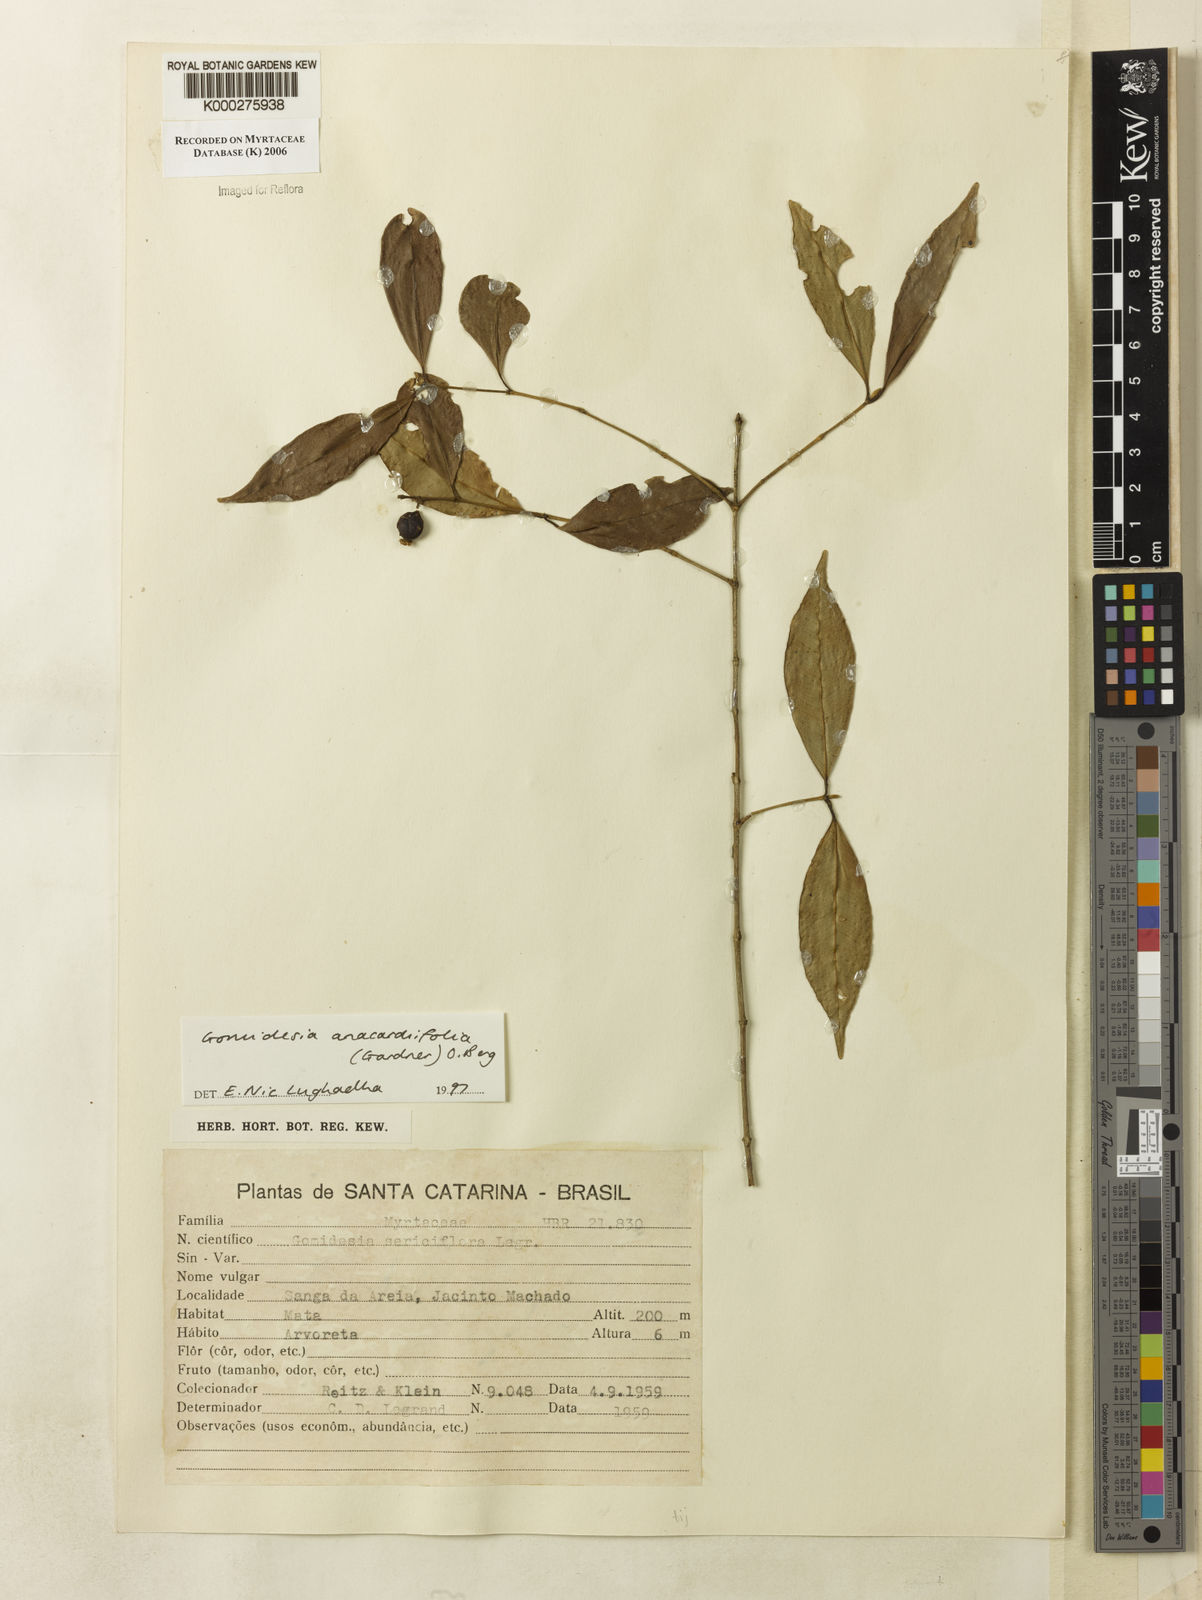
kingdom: Plantae
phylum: Tracheophyta
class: Magnoliopsida
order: Myrtales
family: Myrtaceae
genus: Myrcia
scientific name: Myrcia anacardiifolia
